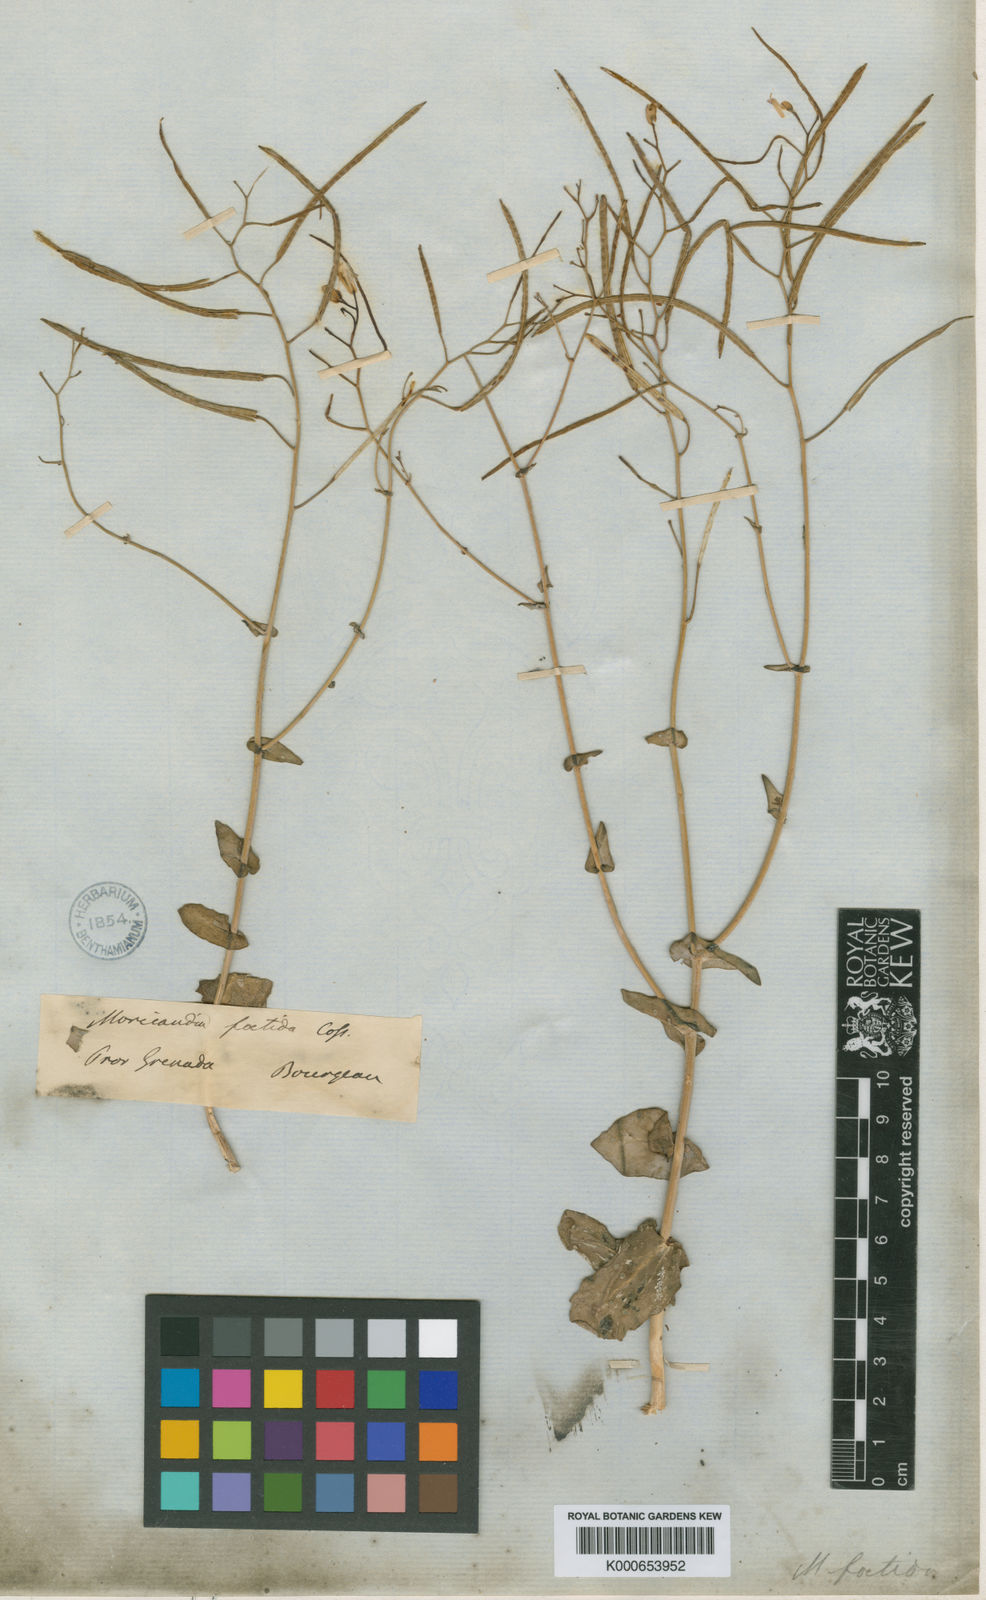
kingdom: Plantae
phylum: Tracheophyta
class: Magnoliopsida
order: Brassicales
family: Brassicaceae
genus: Moricandia
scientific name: Moricandia foetida
